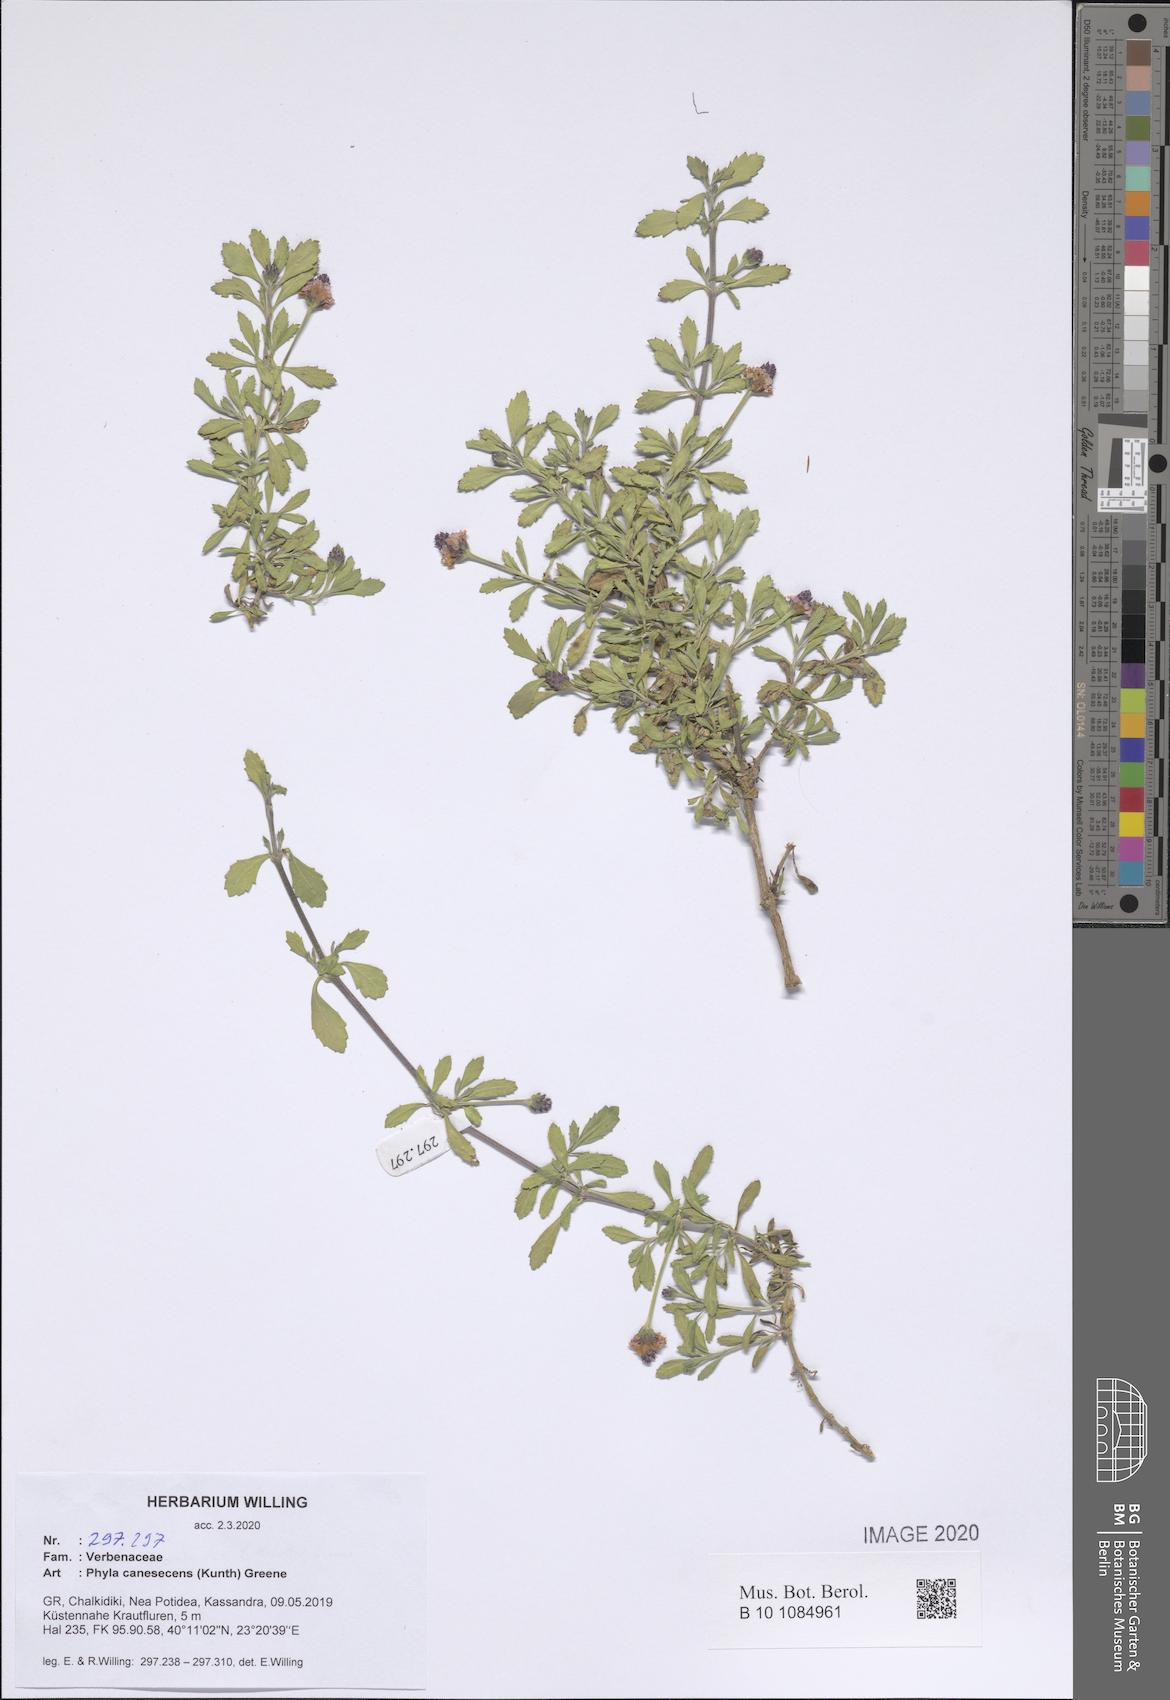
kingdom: Plantae
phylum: Tracheophyta
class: Magnoliopsida
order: Lamiales
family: Verbenaceae
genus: Phyla
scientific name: Phyla nodiflora
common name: Frogfruit
